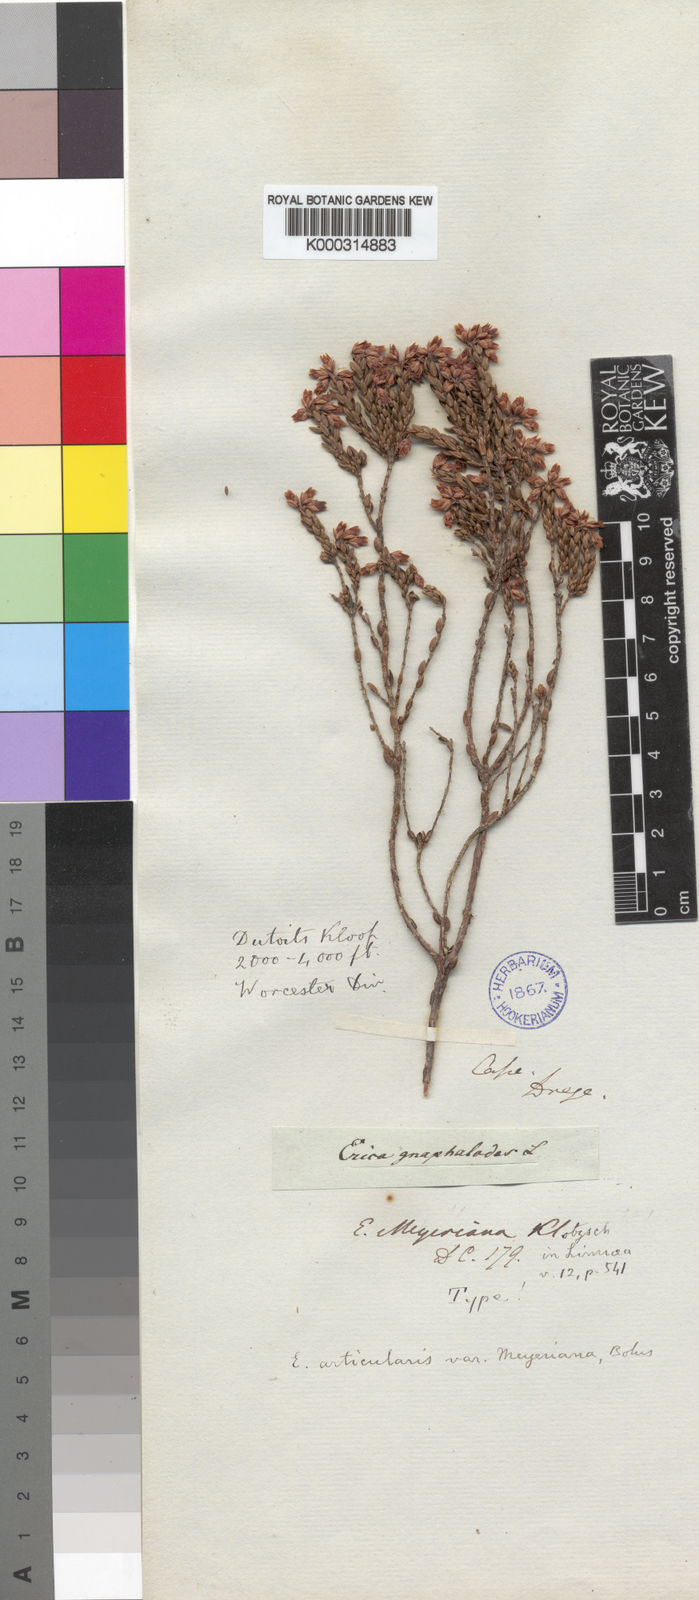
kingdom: Plantae
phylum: Tracheophyta
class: Magnoliopsida
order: Ericales
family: Ericaceae
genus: Erica
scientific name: Erica articularis
